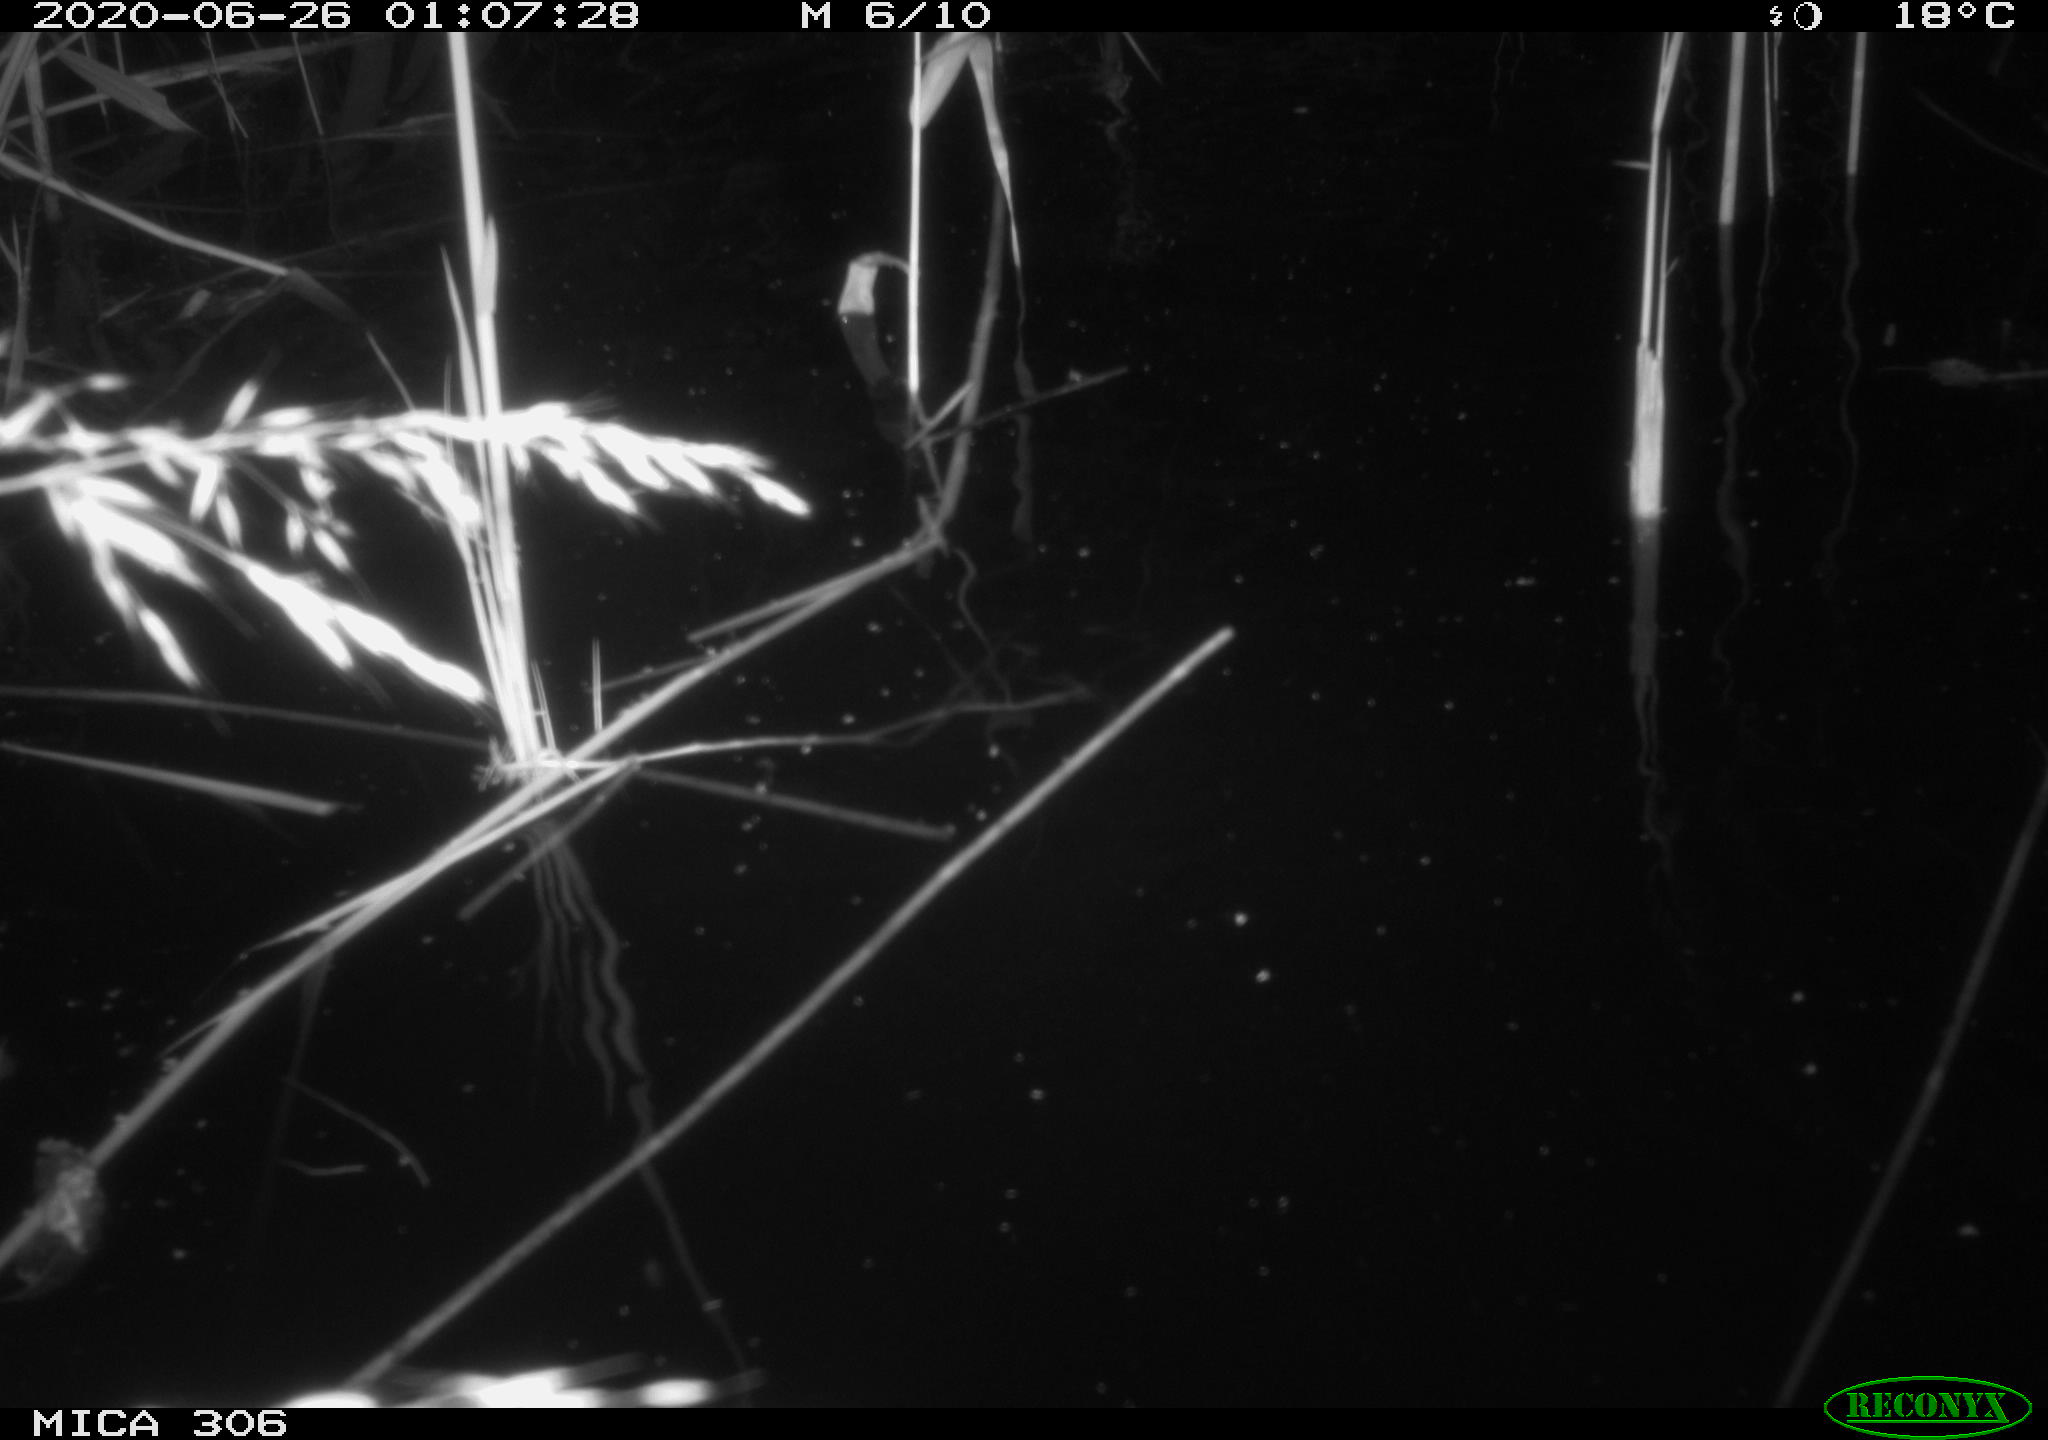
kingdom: Animalia
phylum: Chordata
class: Mammalia
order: Rodentia
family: Muridae
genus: Rattus
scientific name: Rattus norvegicus
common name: Brown rat
